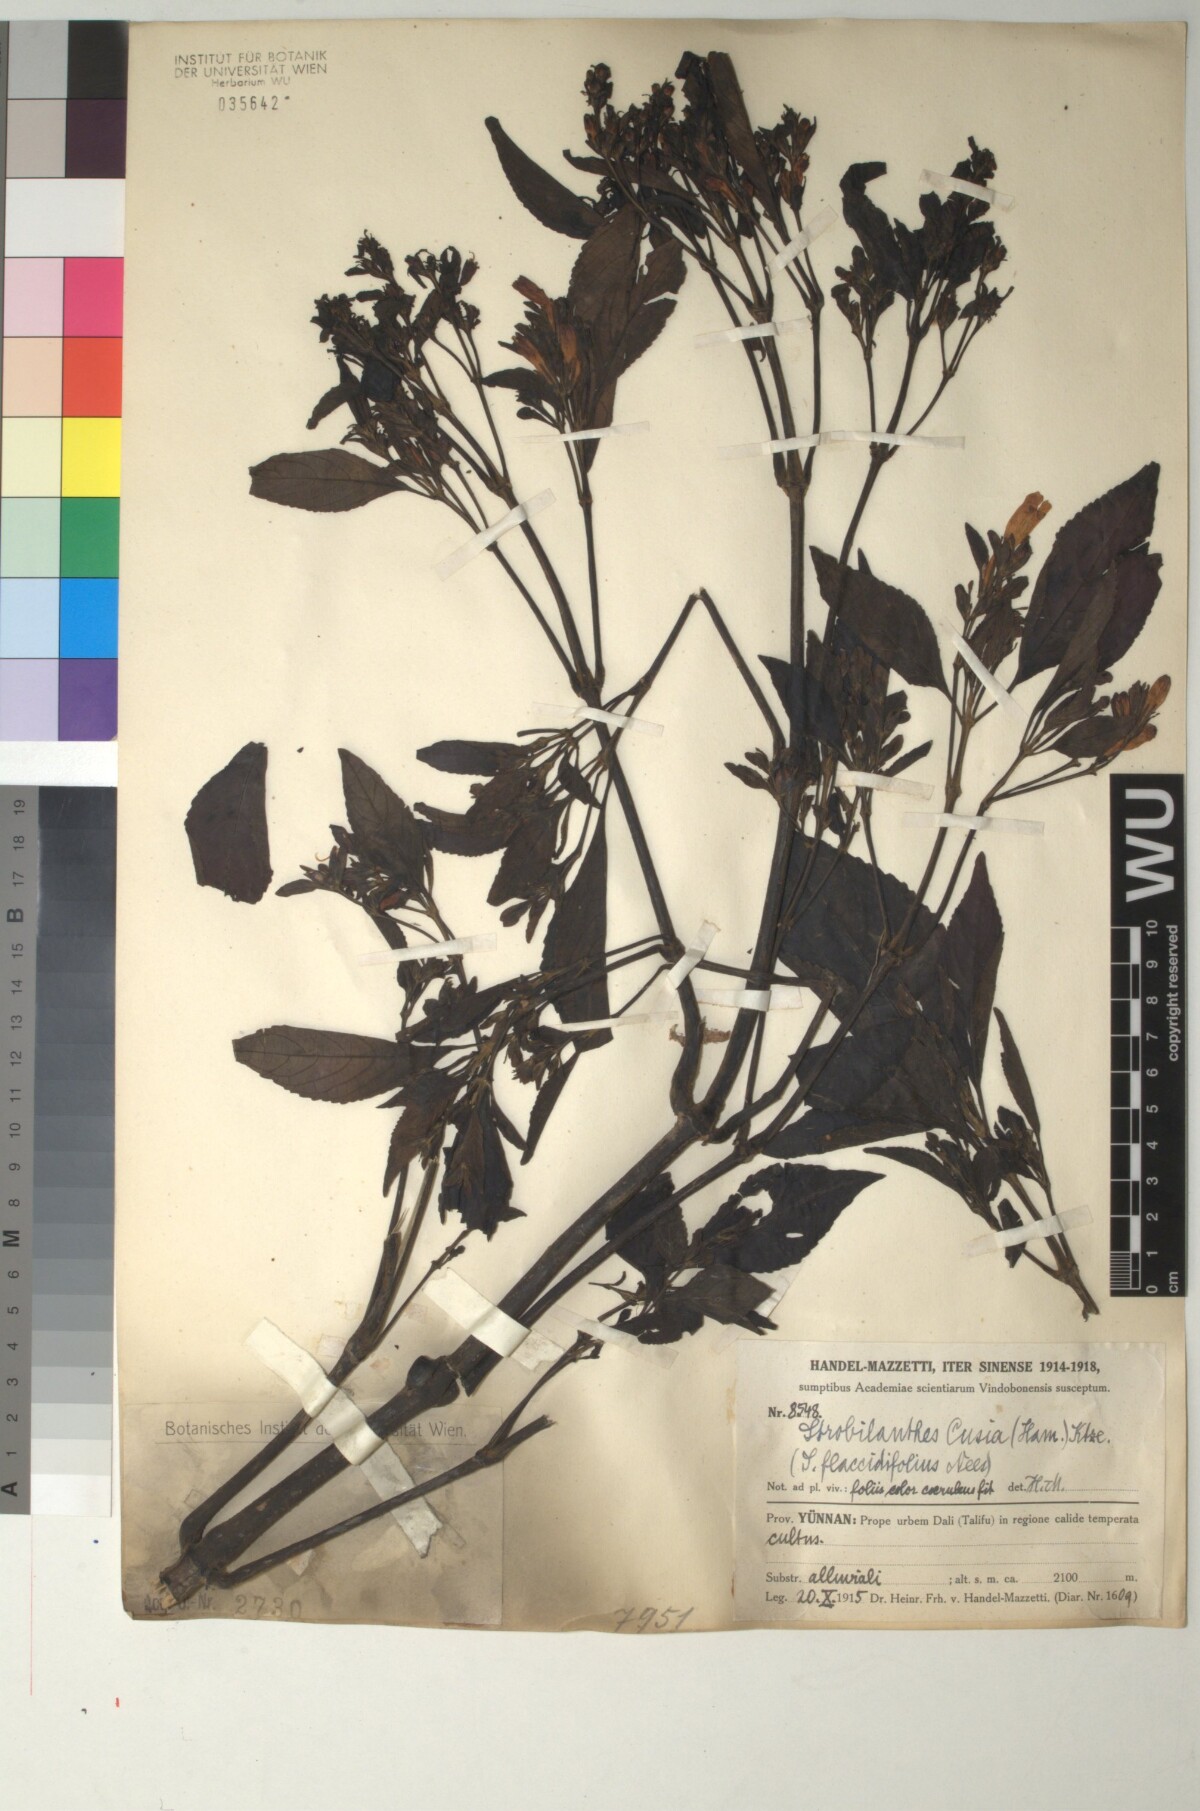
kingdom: Plantae
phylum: Tracheophyta
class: Magnoliopsida
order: Lamiales
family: Acanthaceae
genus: Strobilanthes
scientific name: Strobilanthes cusia
